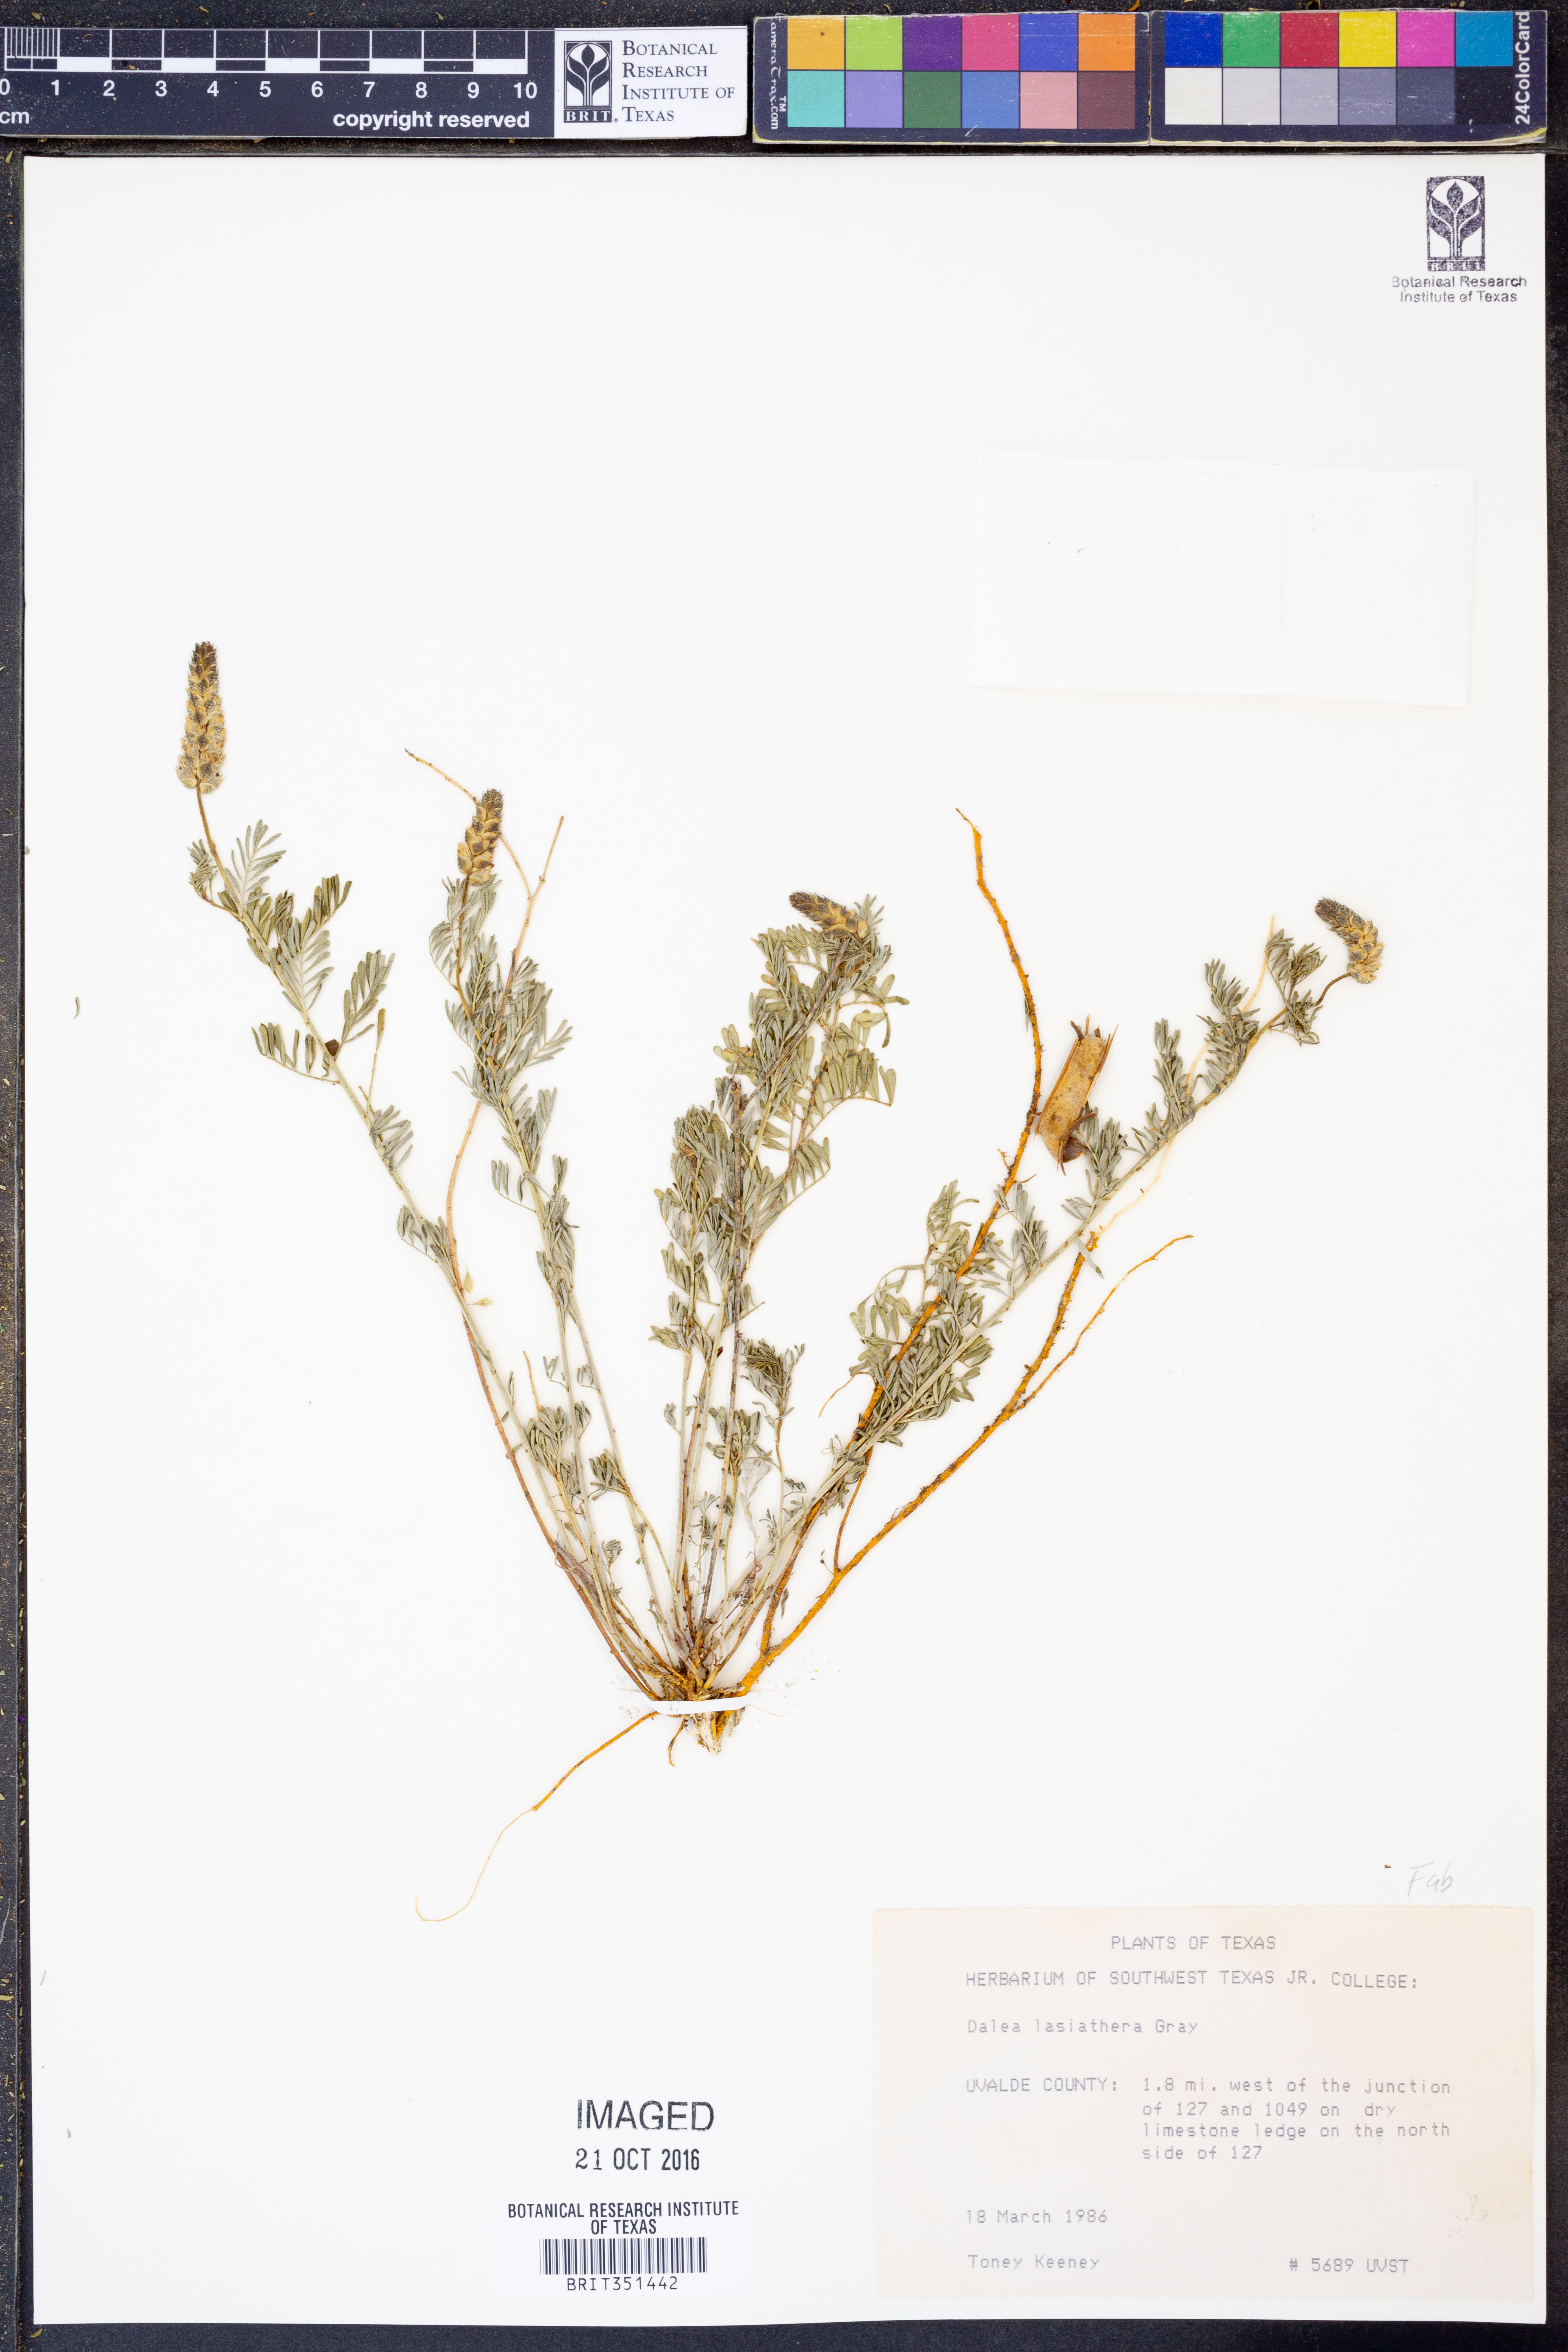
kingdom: Plantae
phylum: Tracheophyta
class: Magnoliopsida
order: Fabales
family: Fabaceae
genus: Dalea
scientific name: Dalea lasiathera
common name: Purple prairie-clover
